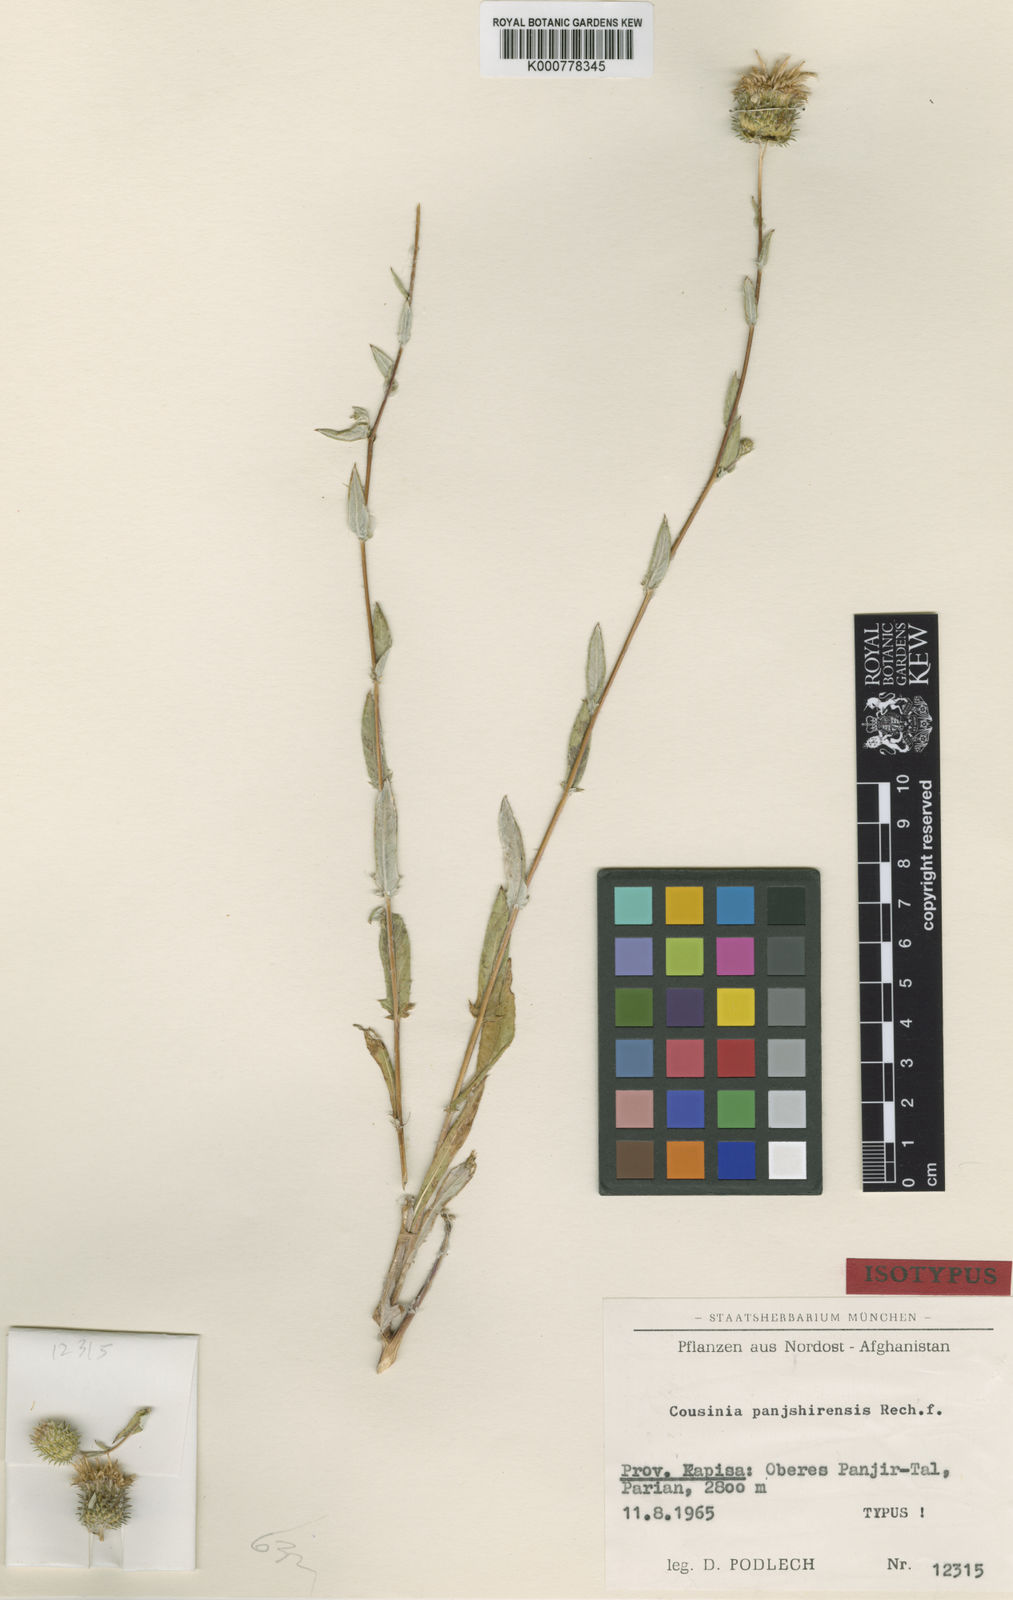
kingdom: Plantae
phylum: Tracheophyta
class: Magnoliopsida
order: Asterales
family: Asteraceae
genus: Cousinia
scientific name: Cousinia panjshirensis
